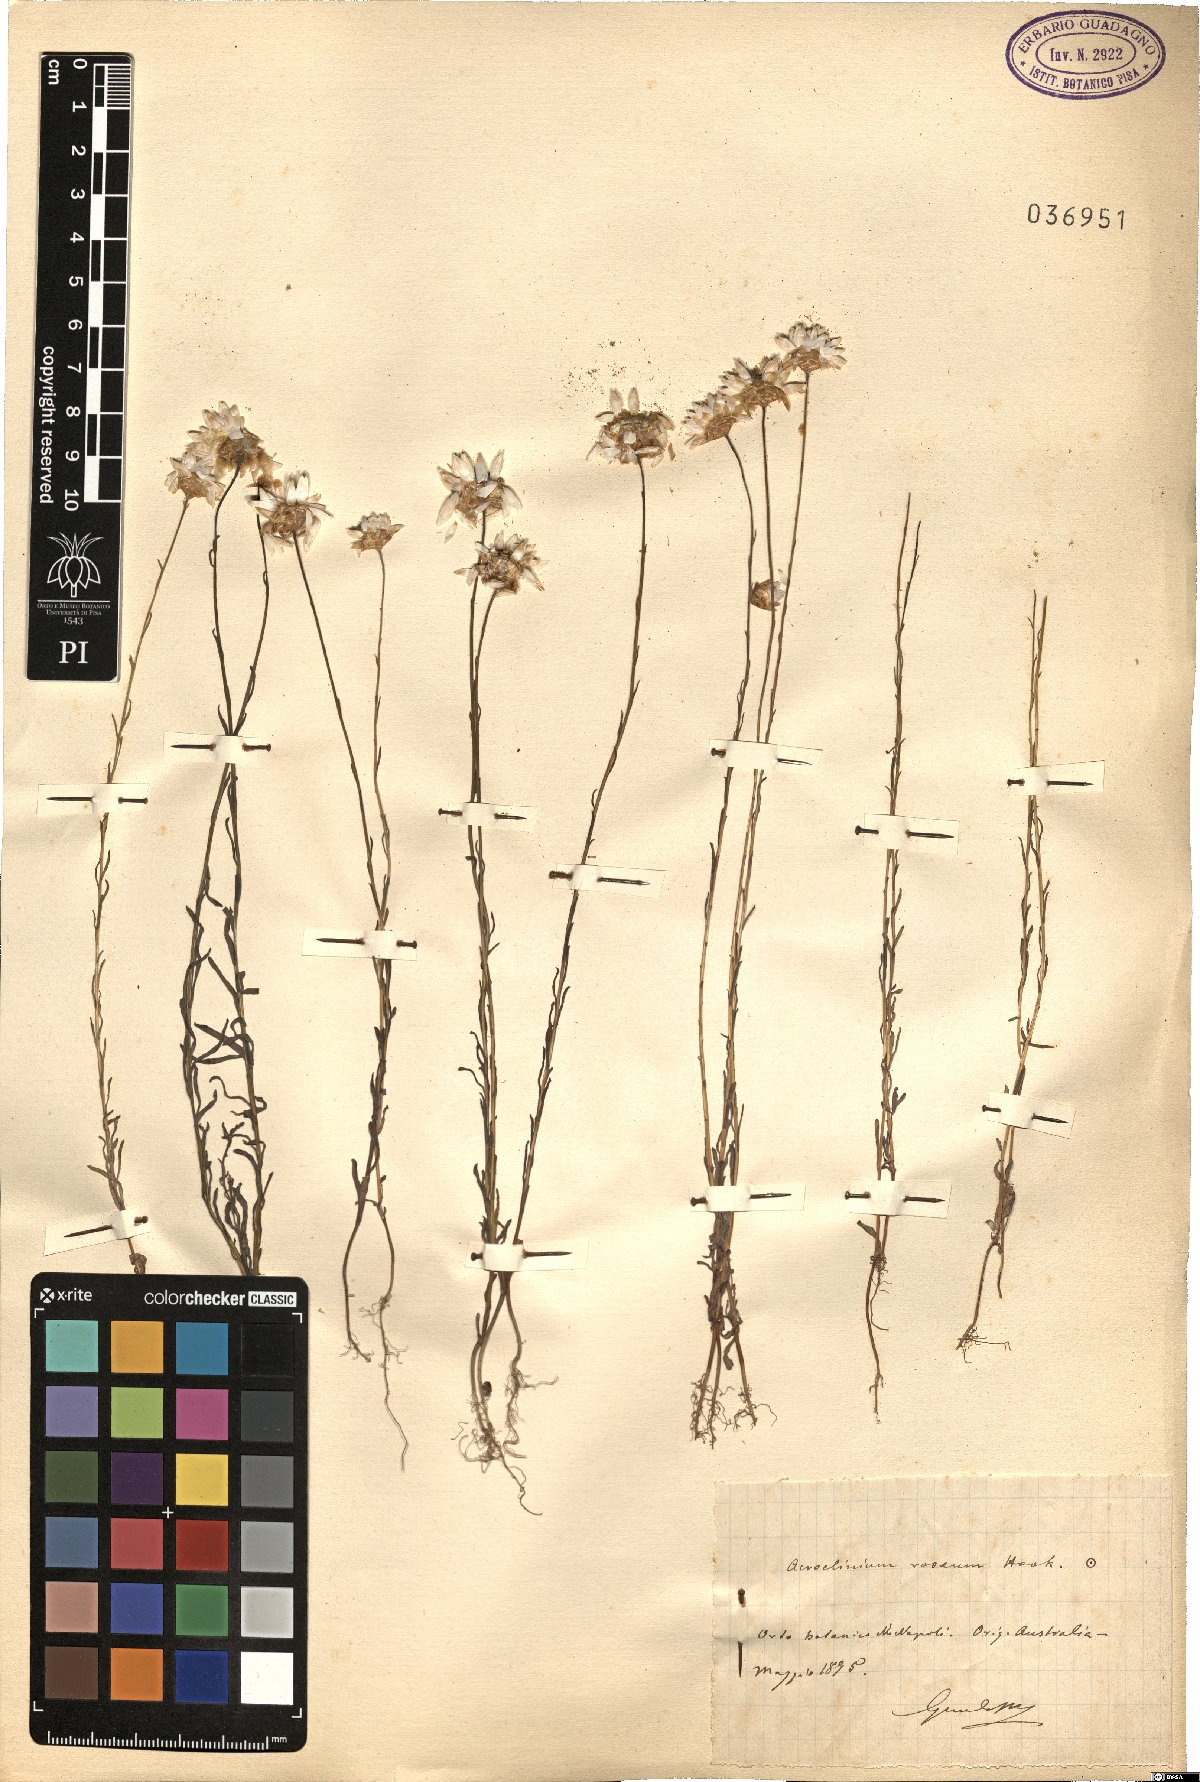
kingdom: Plantae
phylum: Tracheophyta
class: Magnoliopsida
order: Asterales
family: Asteraceae
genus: Rhodanthe
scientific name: Rhodanthe chlorocephala
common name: Rosy sunray
